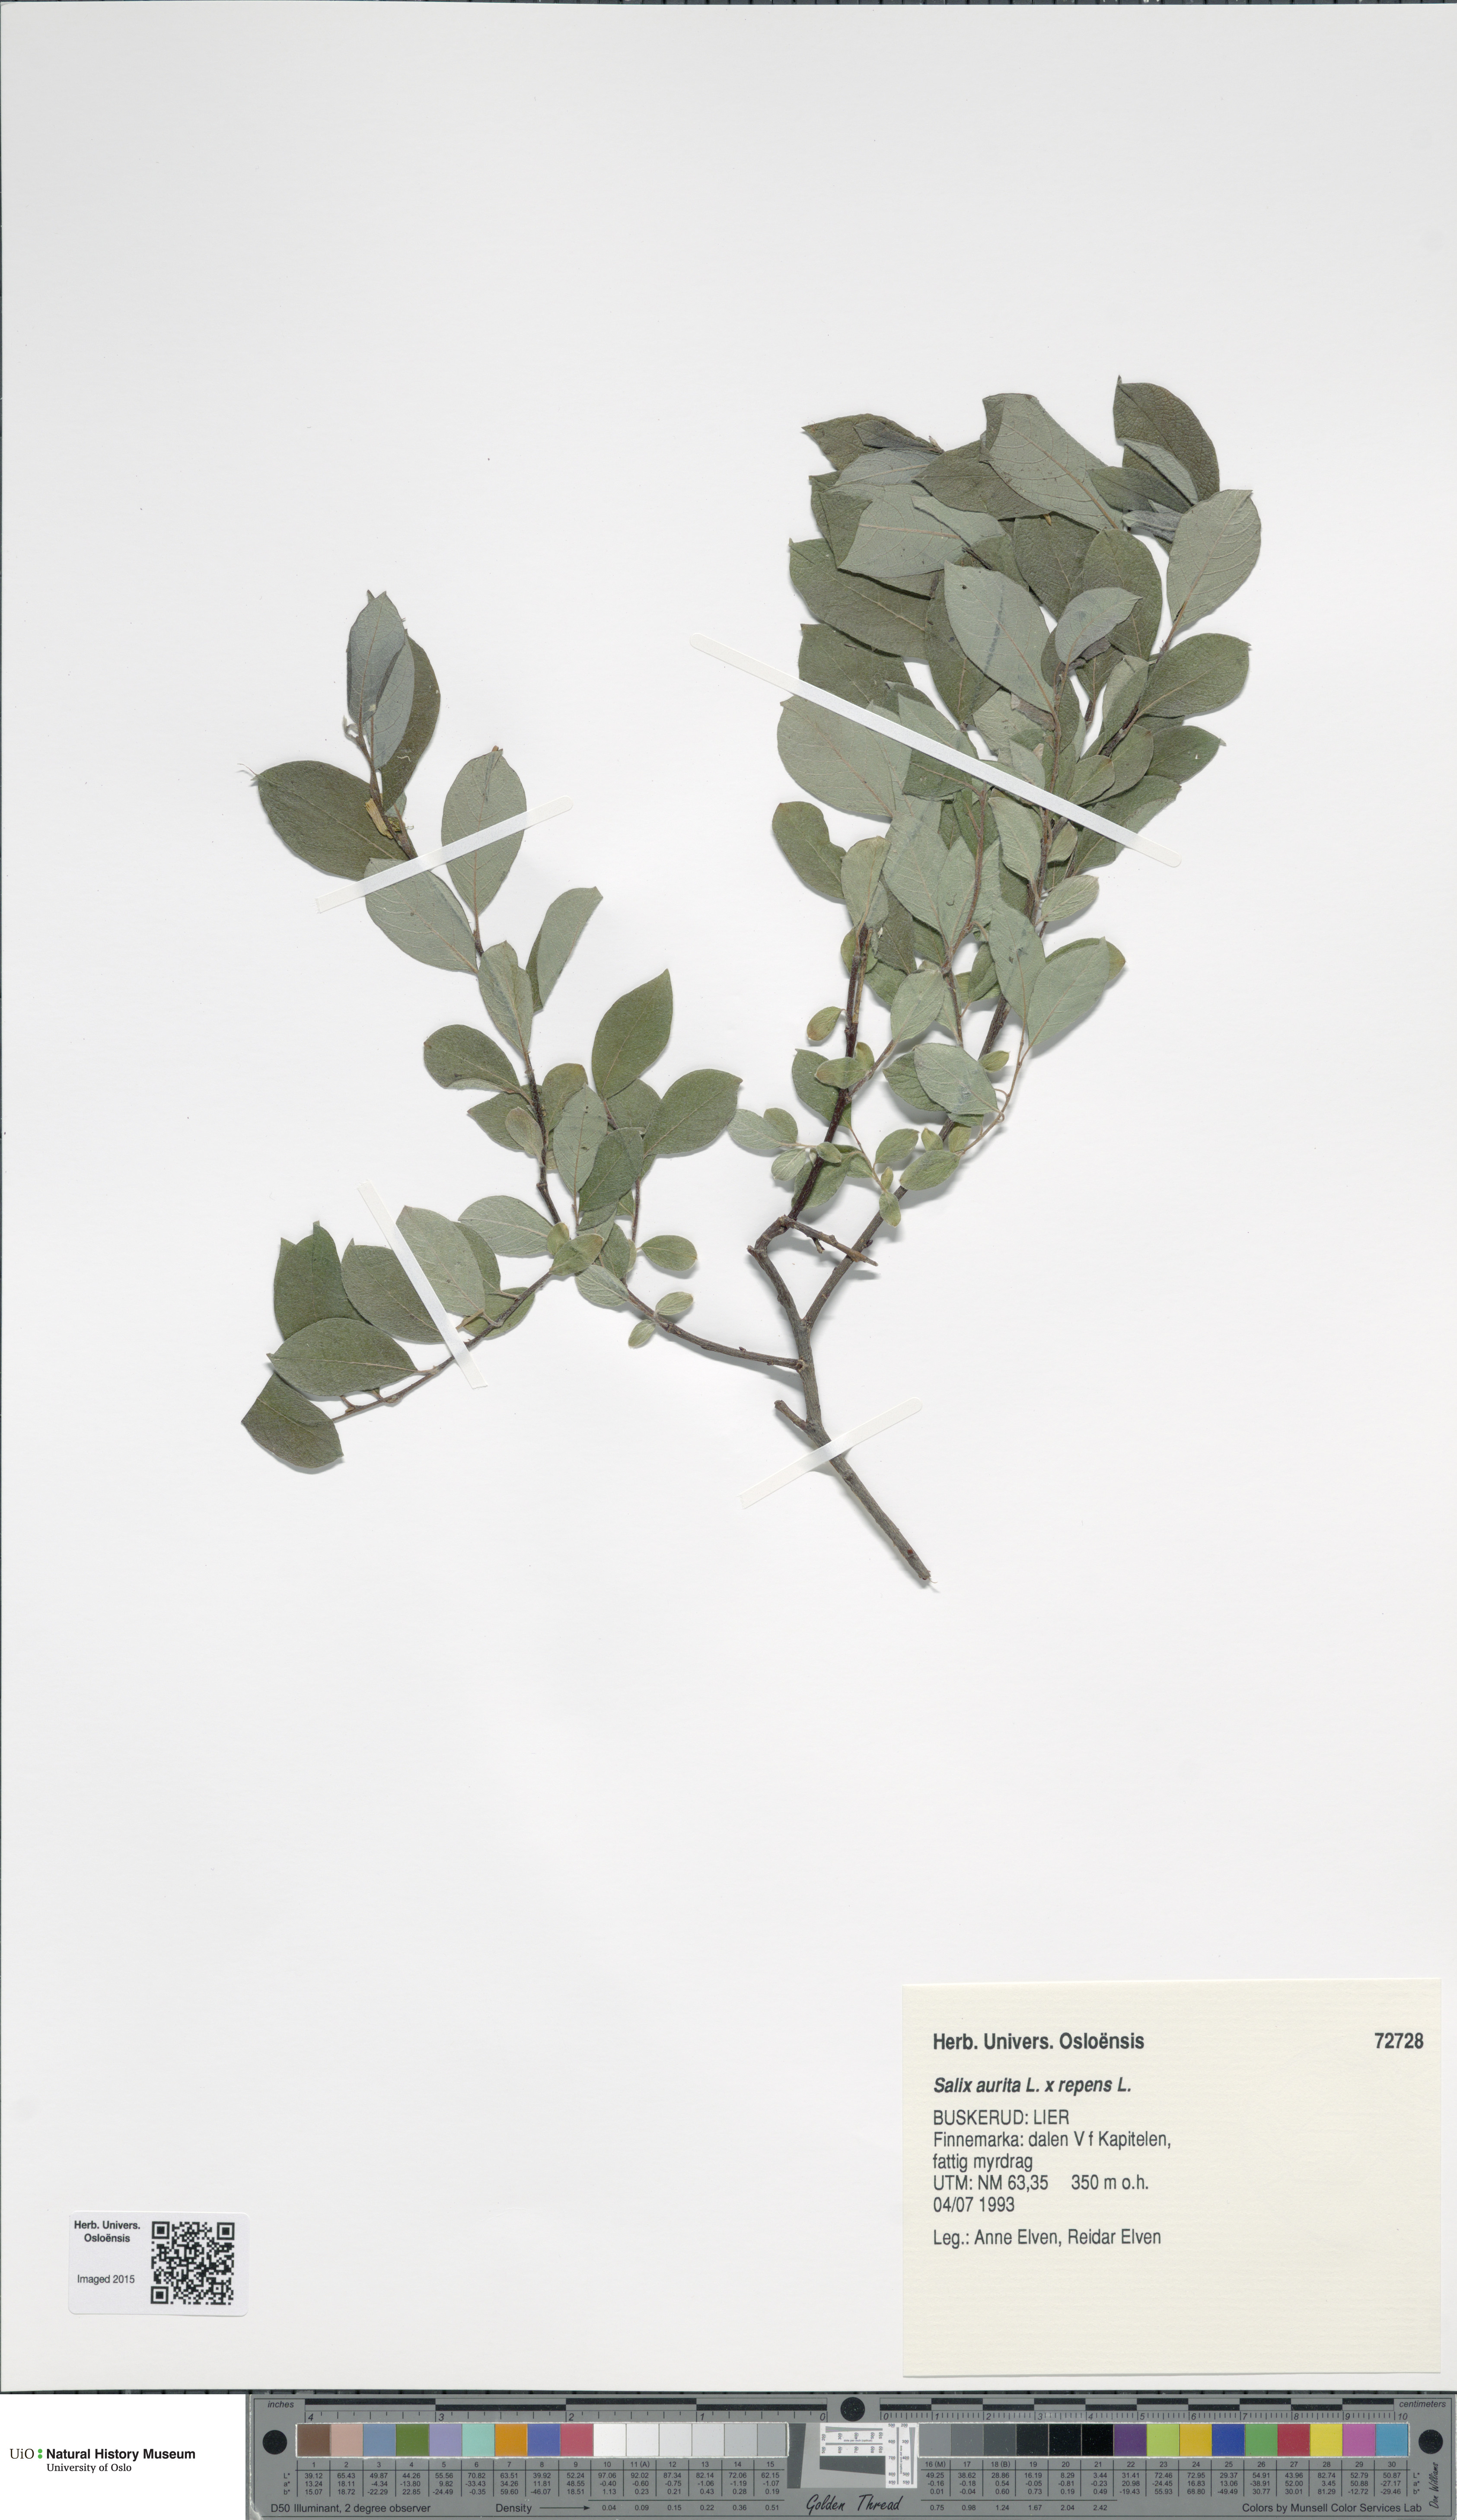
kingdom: Plantae
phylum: Tracheophyta
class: Magnoliopsida
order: Malpighiales
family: Salicaceae
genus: Salix
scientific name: Salix
